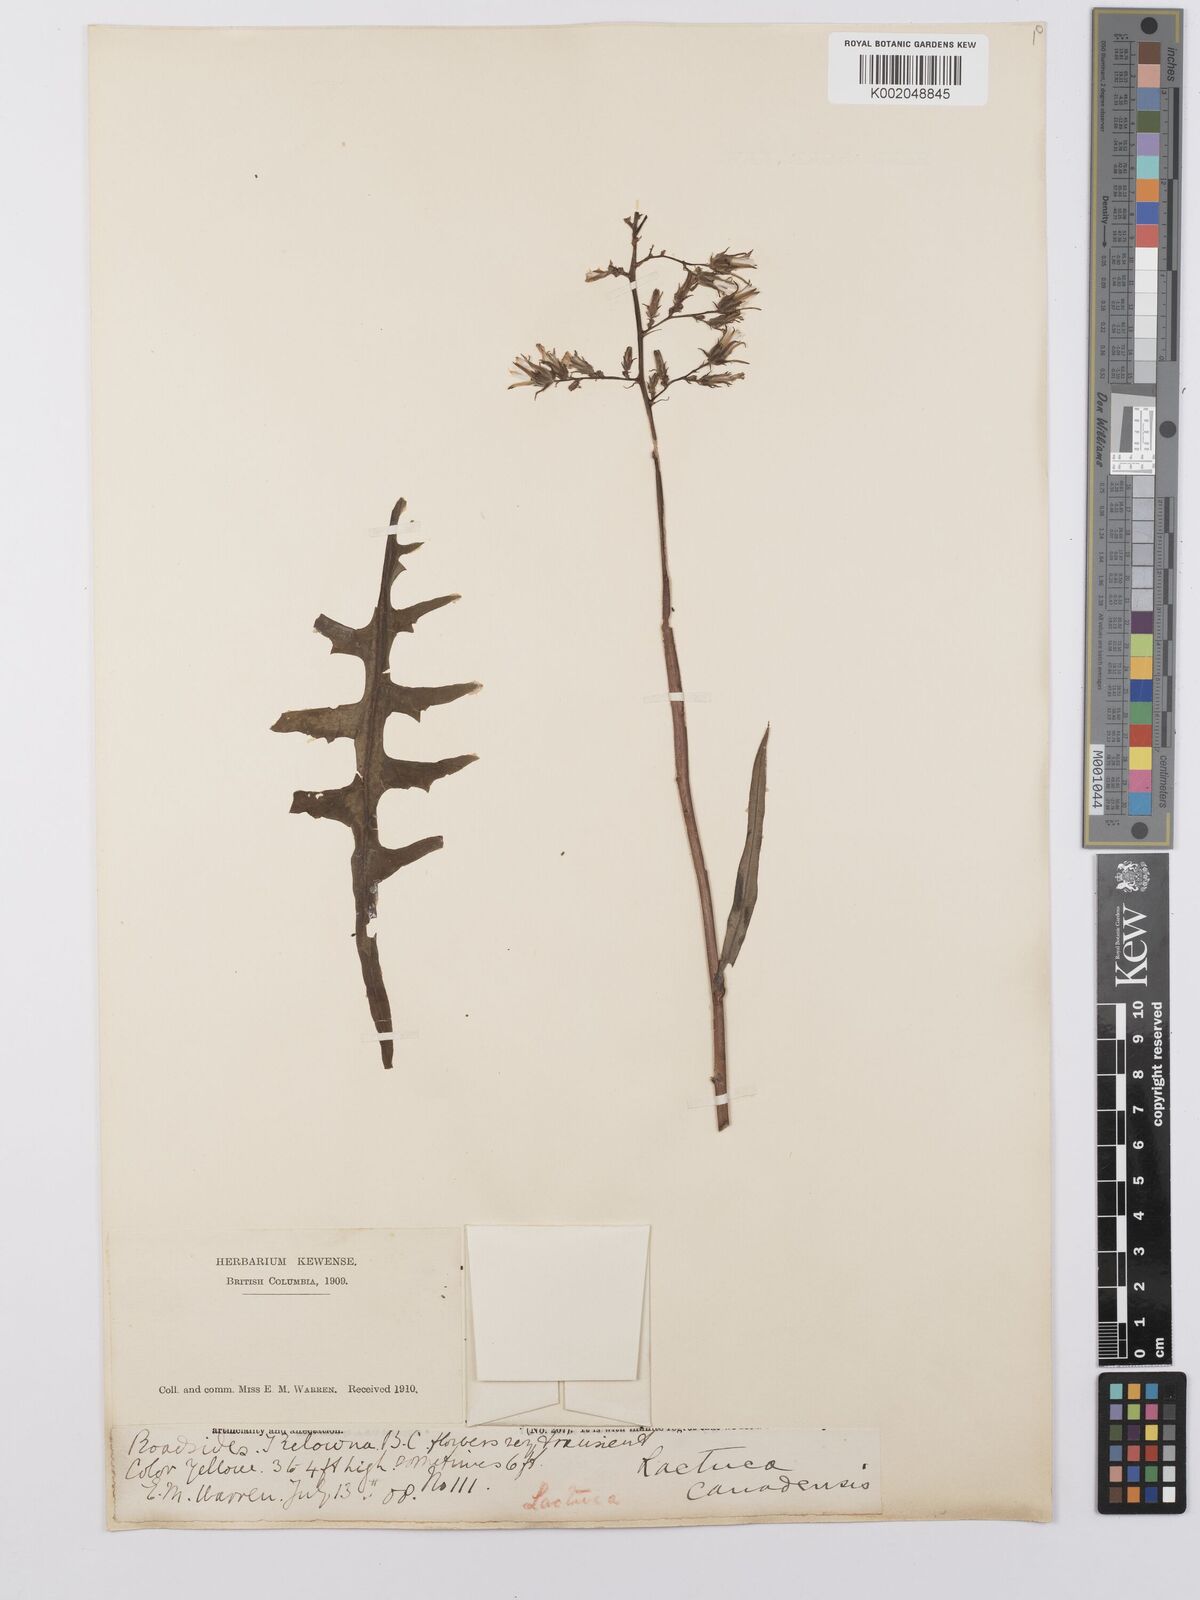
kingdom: Plantae
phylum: Tracheophyta
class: Magnoliopsida
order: Asterales
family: Asteraceae
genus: Lactuca
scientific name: Lactuca canadensis
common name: Canada lettuce
